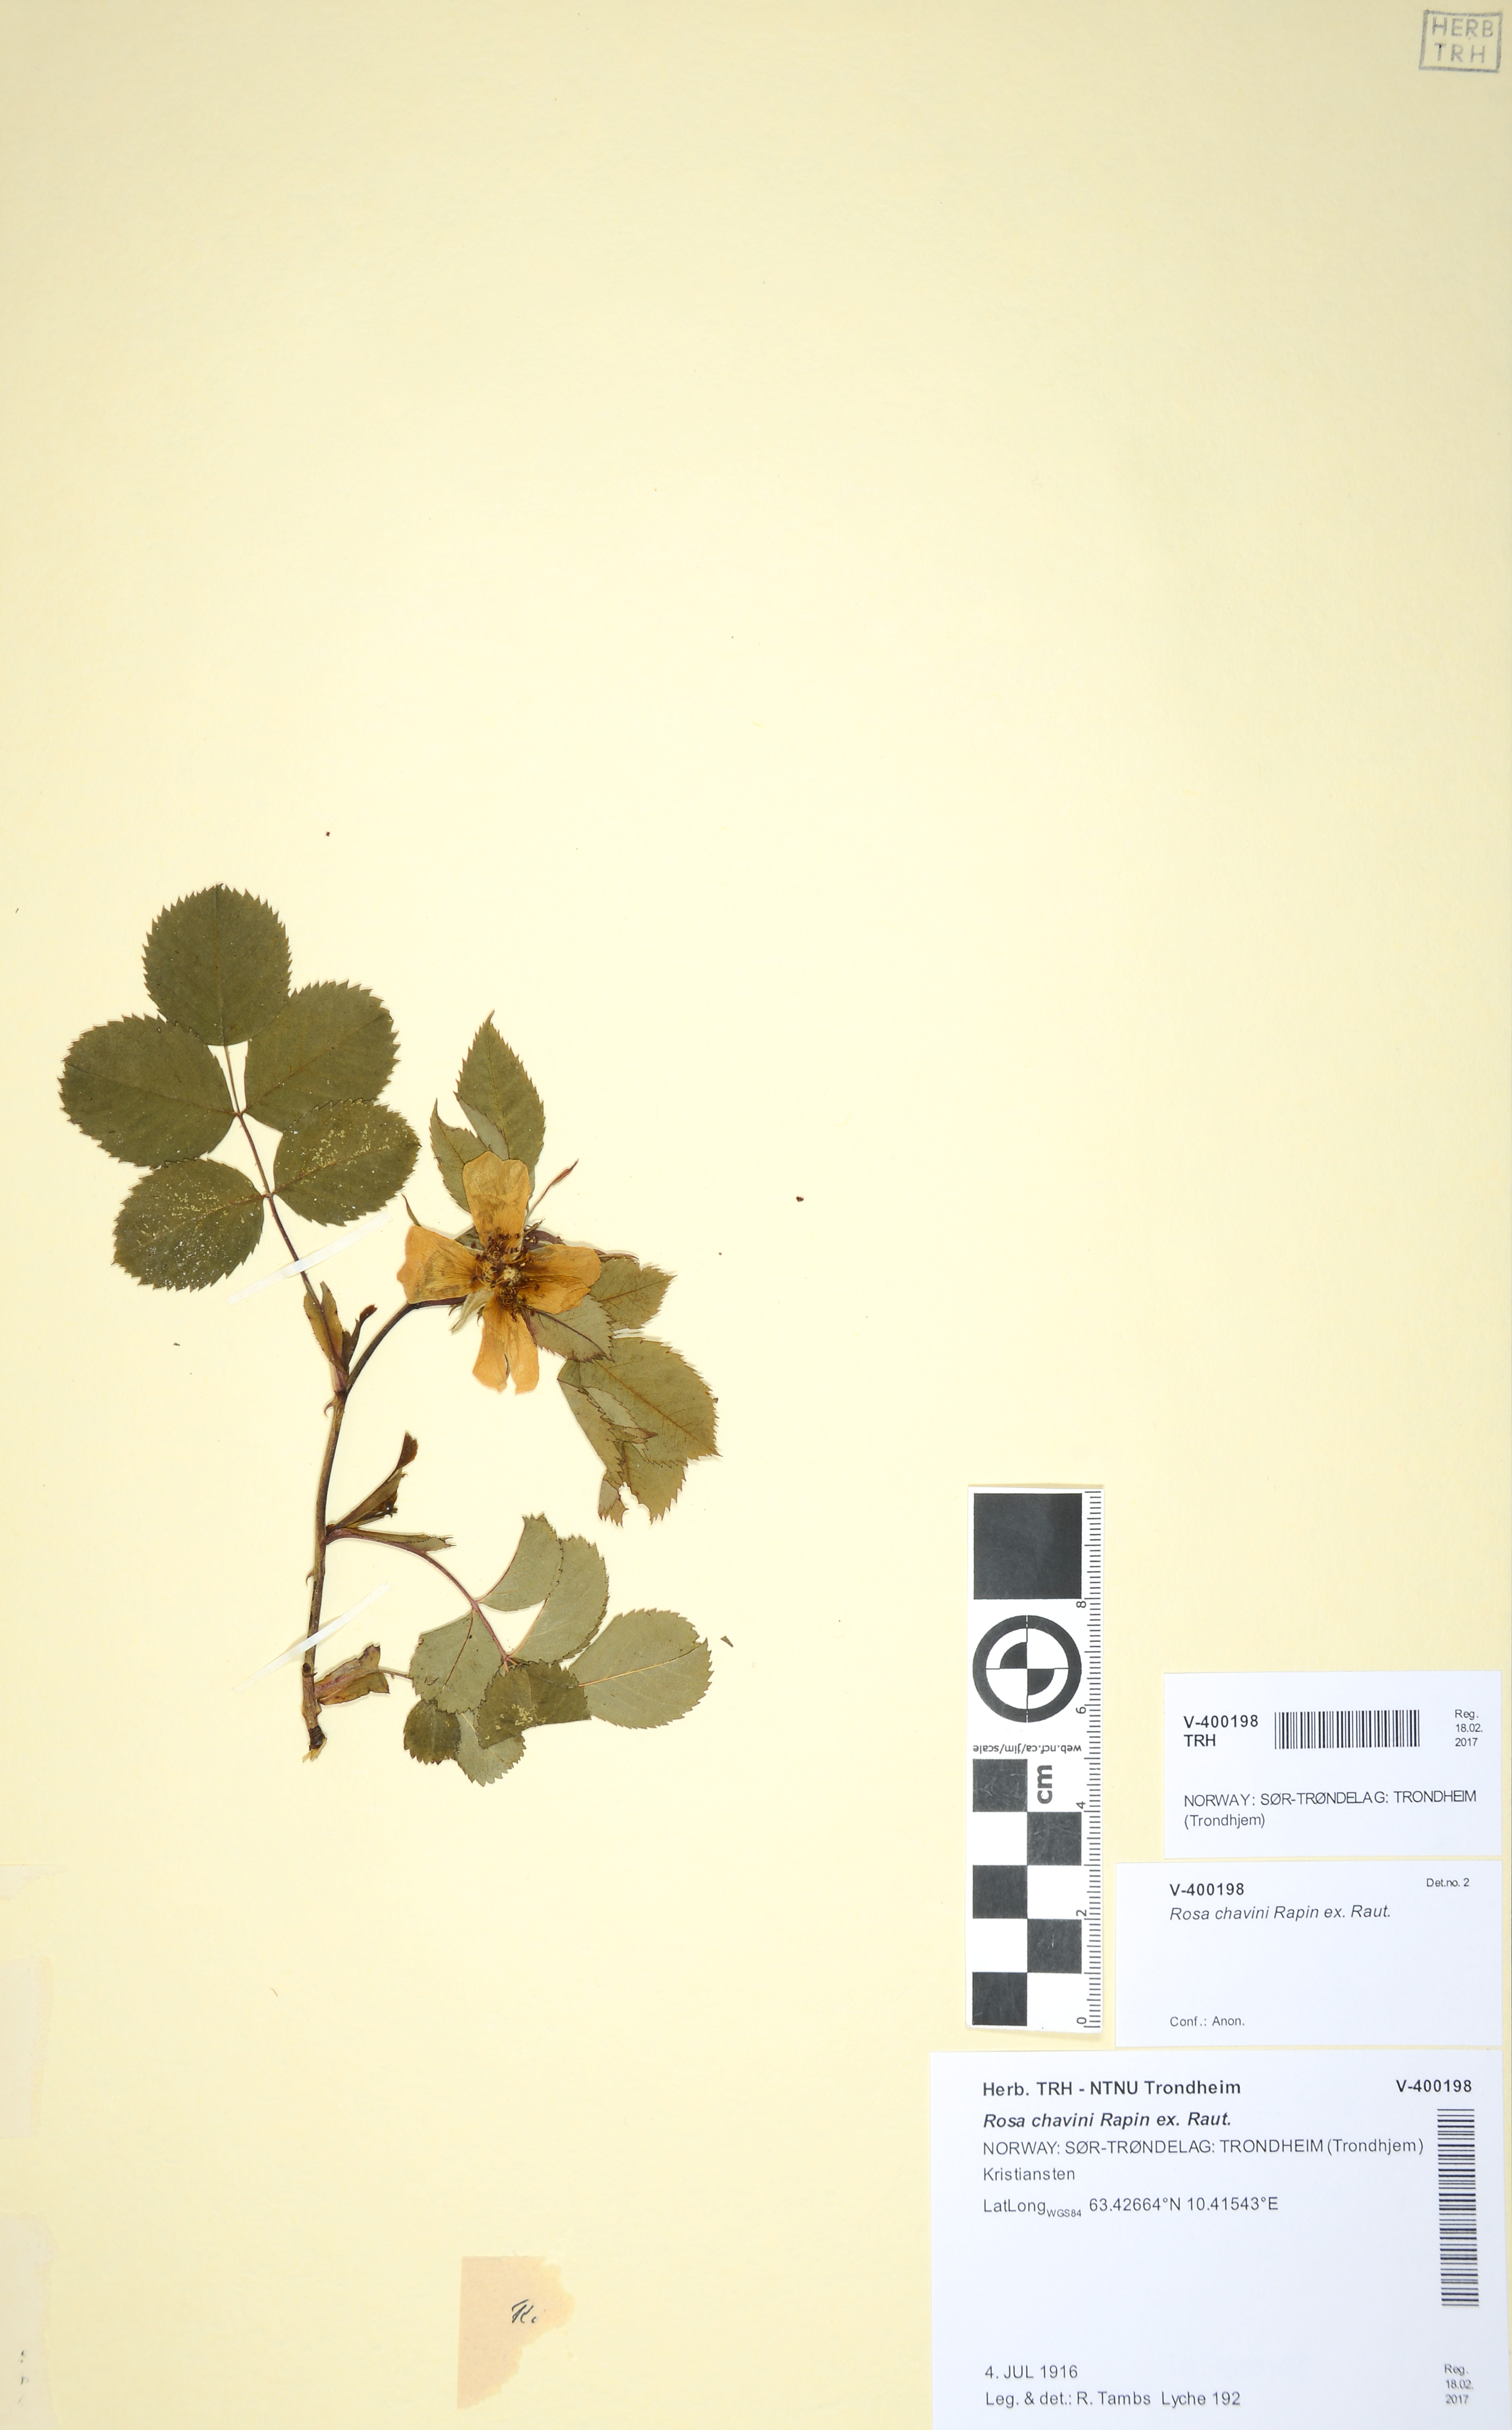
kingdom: Plantae
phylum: Tracheophyta
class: Magnoliopsida
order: Rosales
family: Rosaceae
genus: Rosa
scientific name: Rosa
